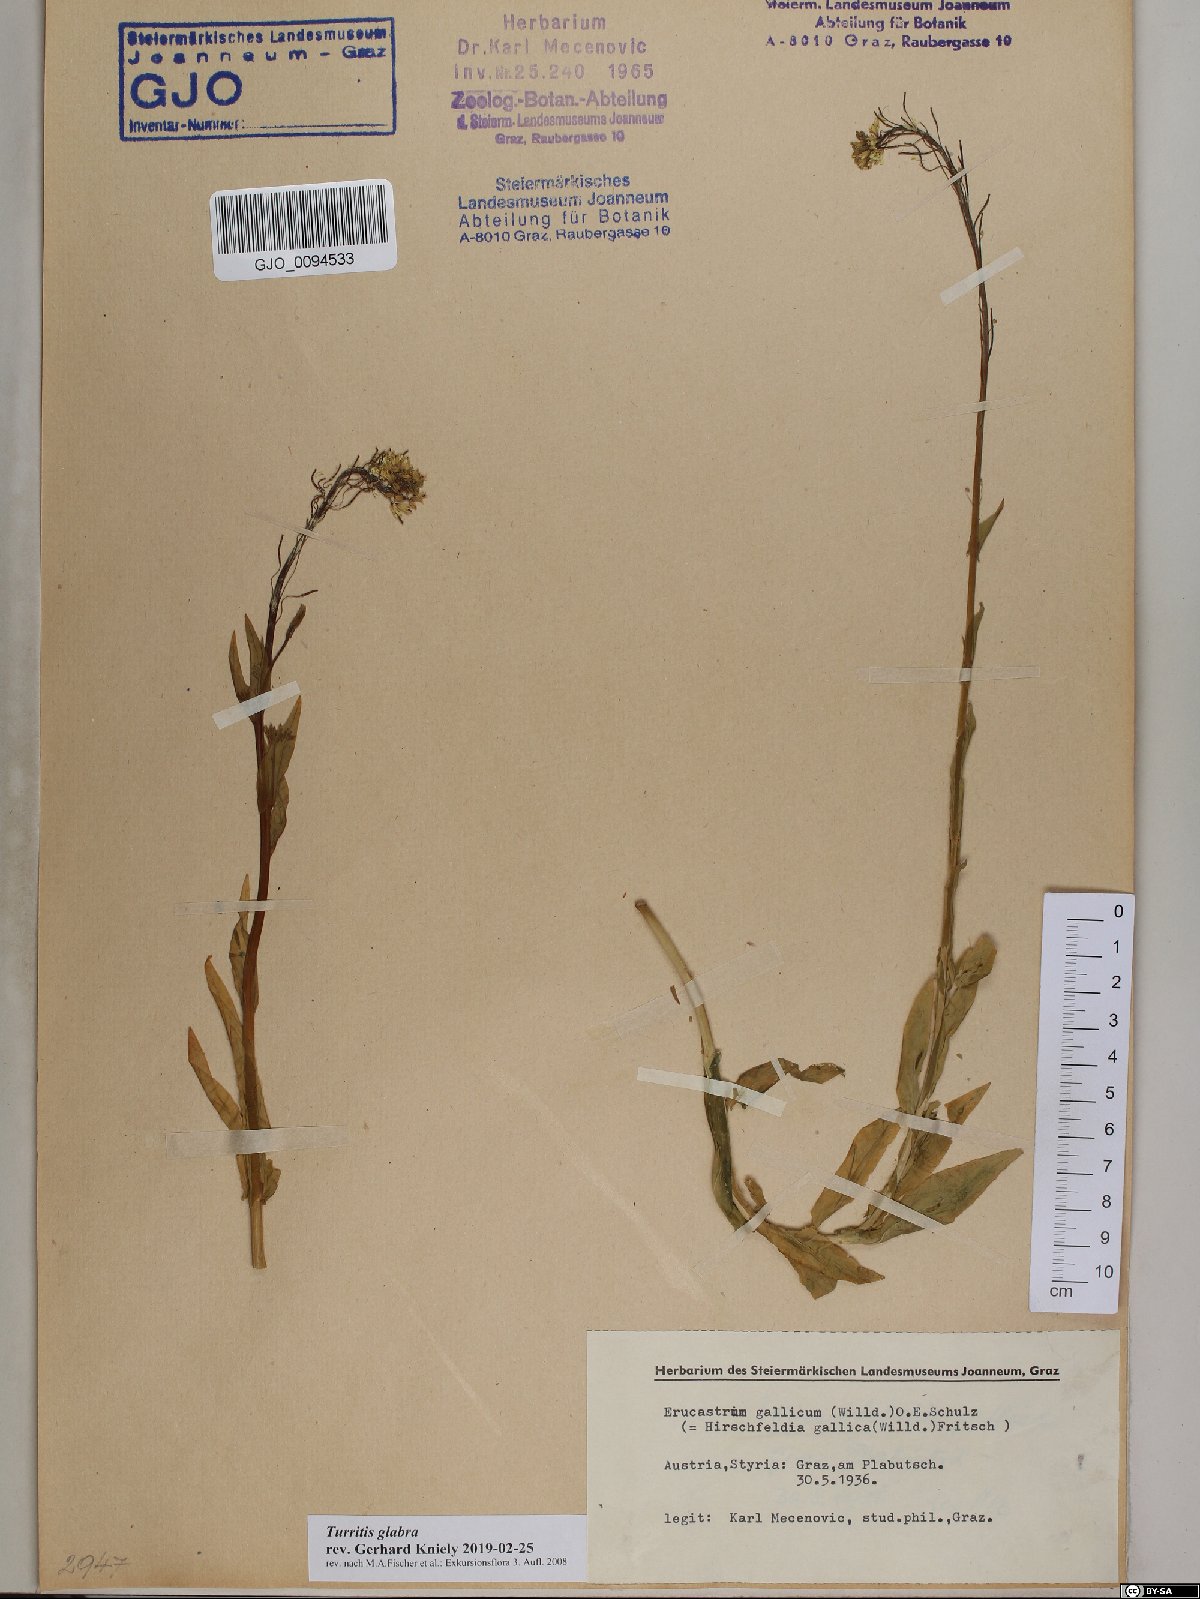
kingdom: Plantae
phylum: Tracheophyta
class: Magnoliopsida
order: Brassicales
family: Brassicaceae
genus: Turritis
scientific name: Turritis glabra
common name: Tower rockcress
